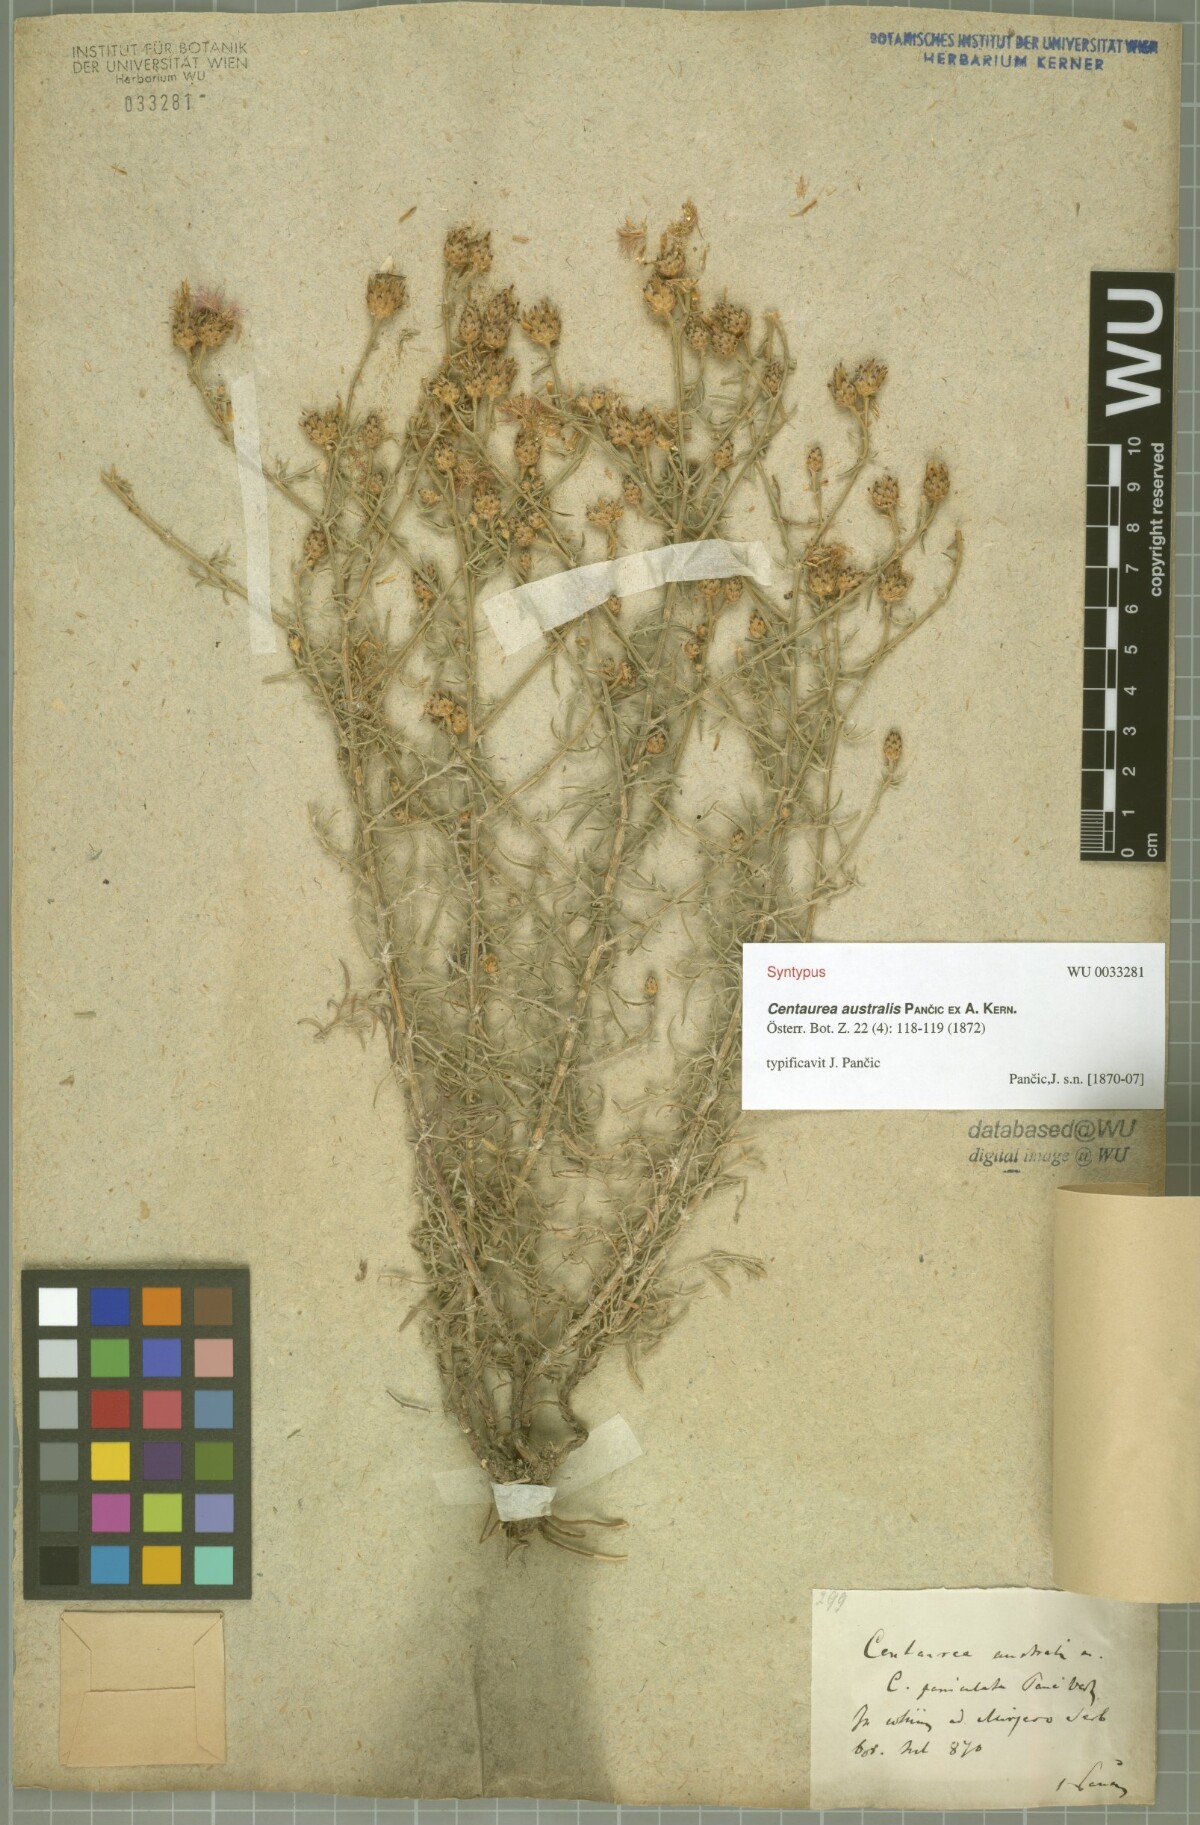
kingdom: Plantae
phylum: Tracheophyta
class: Magnoliopsida
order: Asterales
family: Asteraceae
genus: Centaurea
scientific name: Centaurea australis
